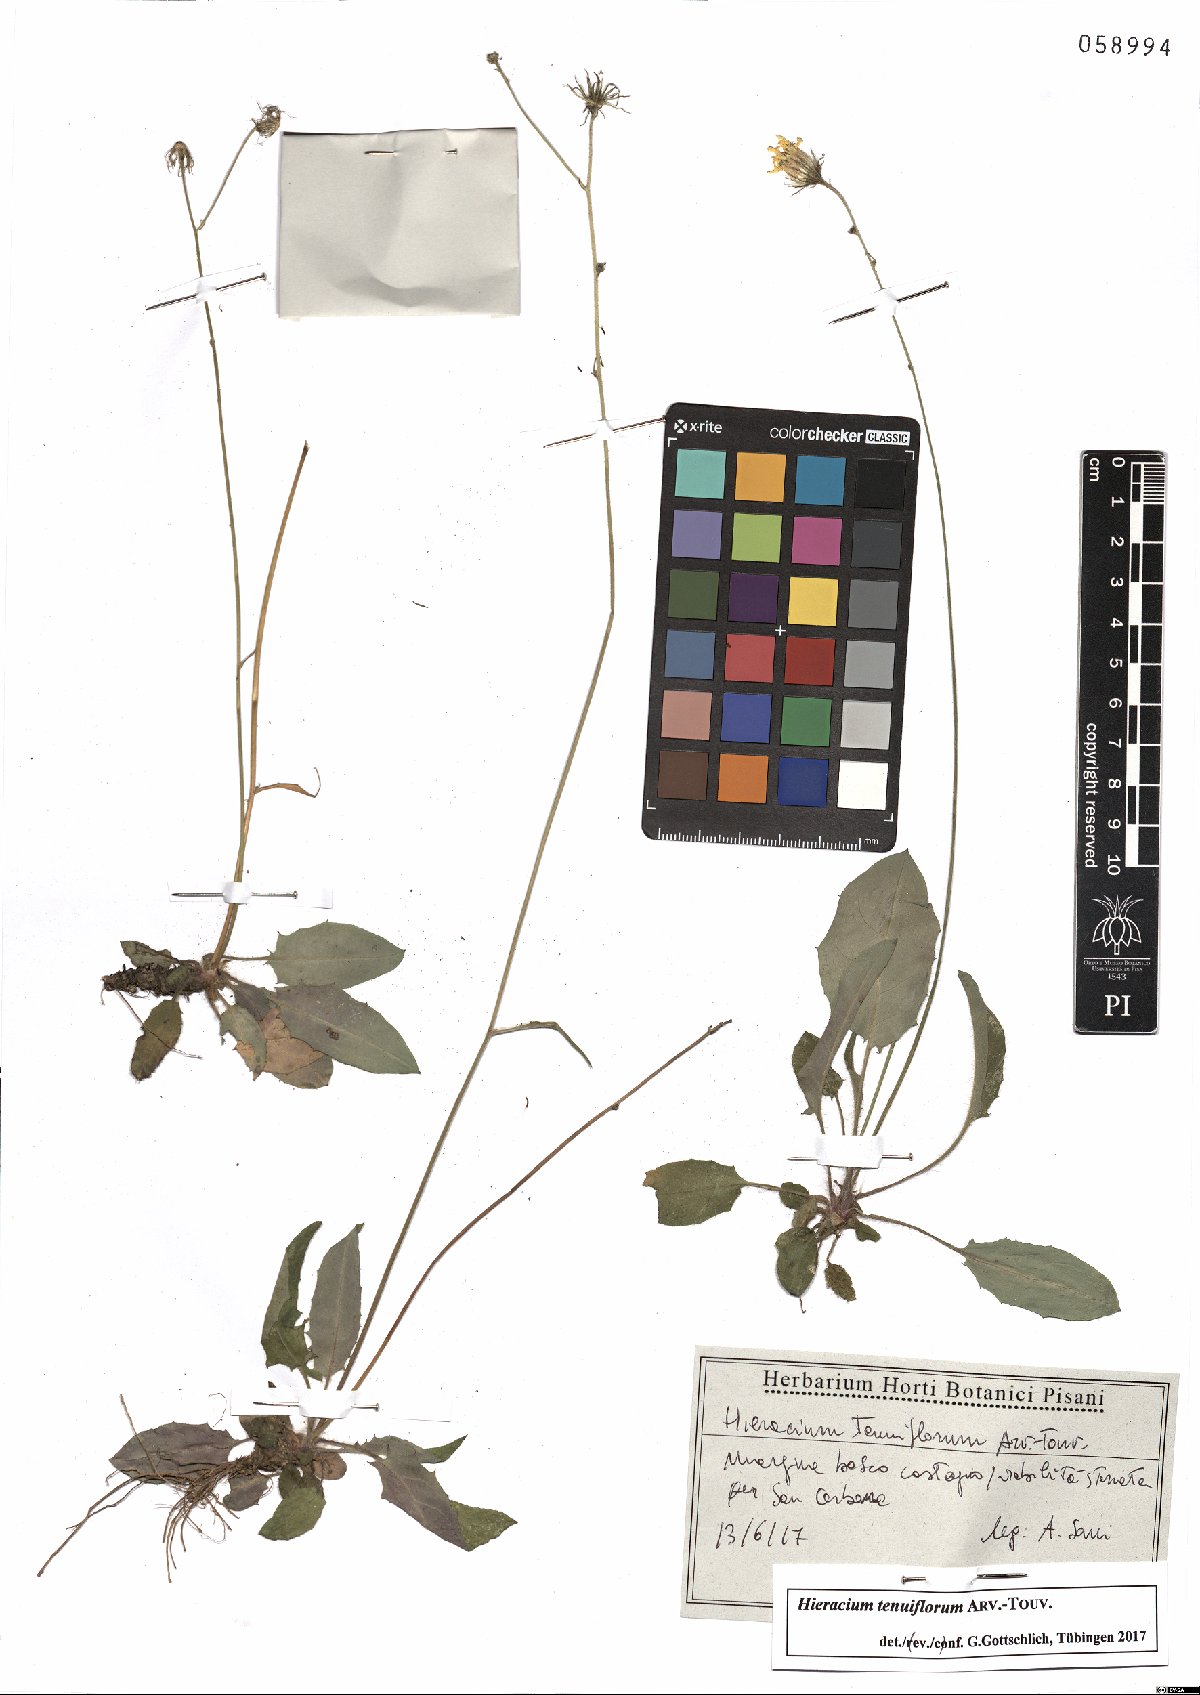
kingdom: Plantae
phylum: Tracheophyta
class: Magnoliopsida
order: Asterales
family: Asteraceae
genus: Hieracium
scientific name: Hieracium tenuiflorum
